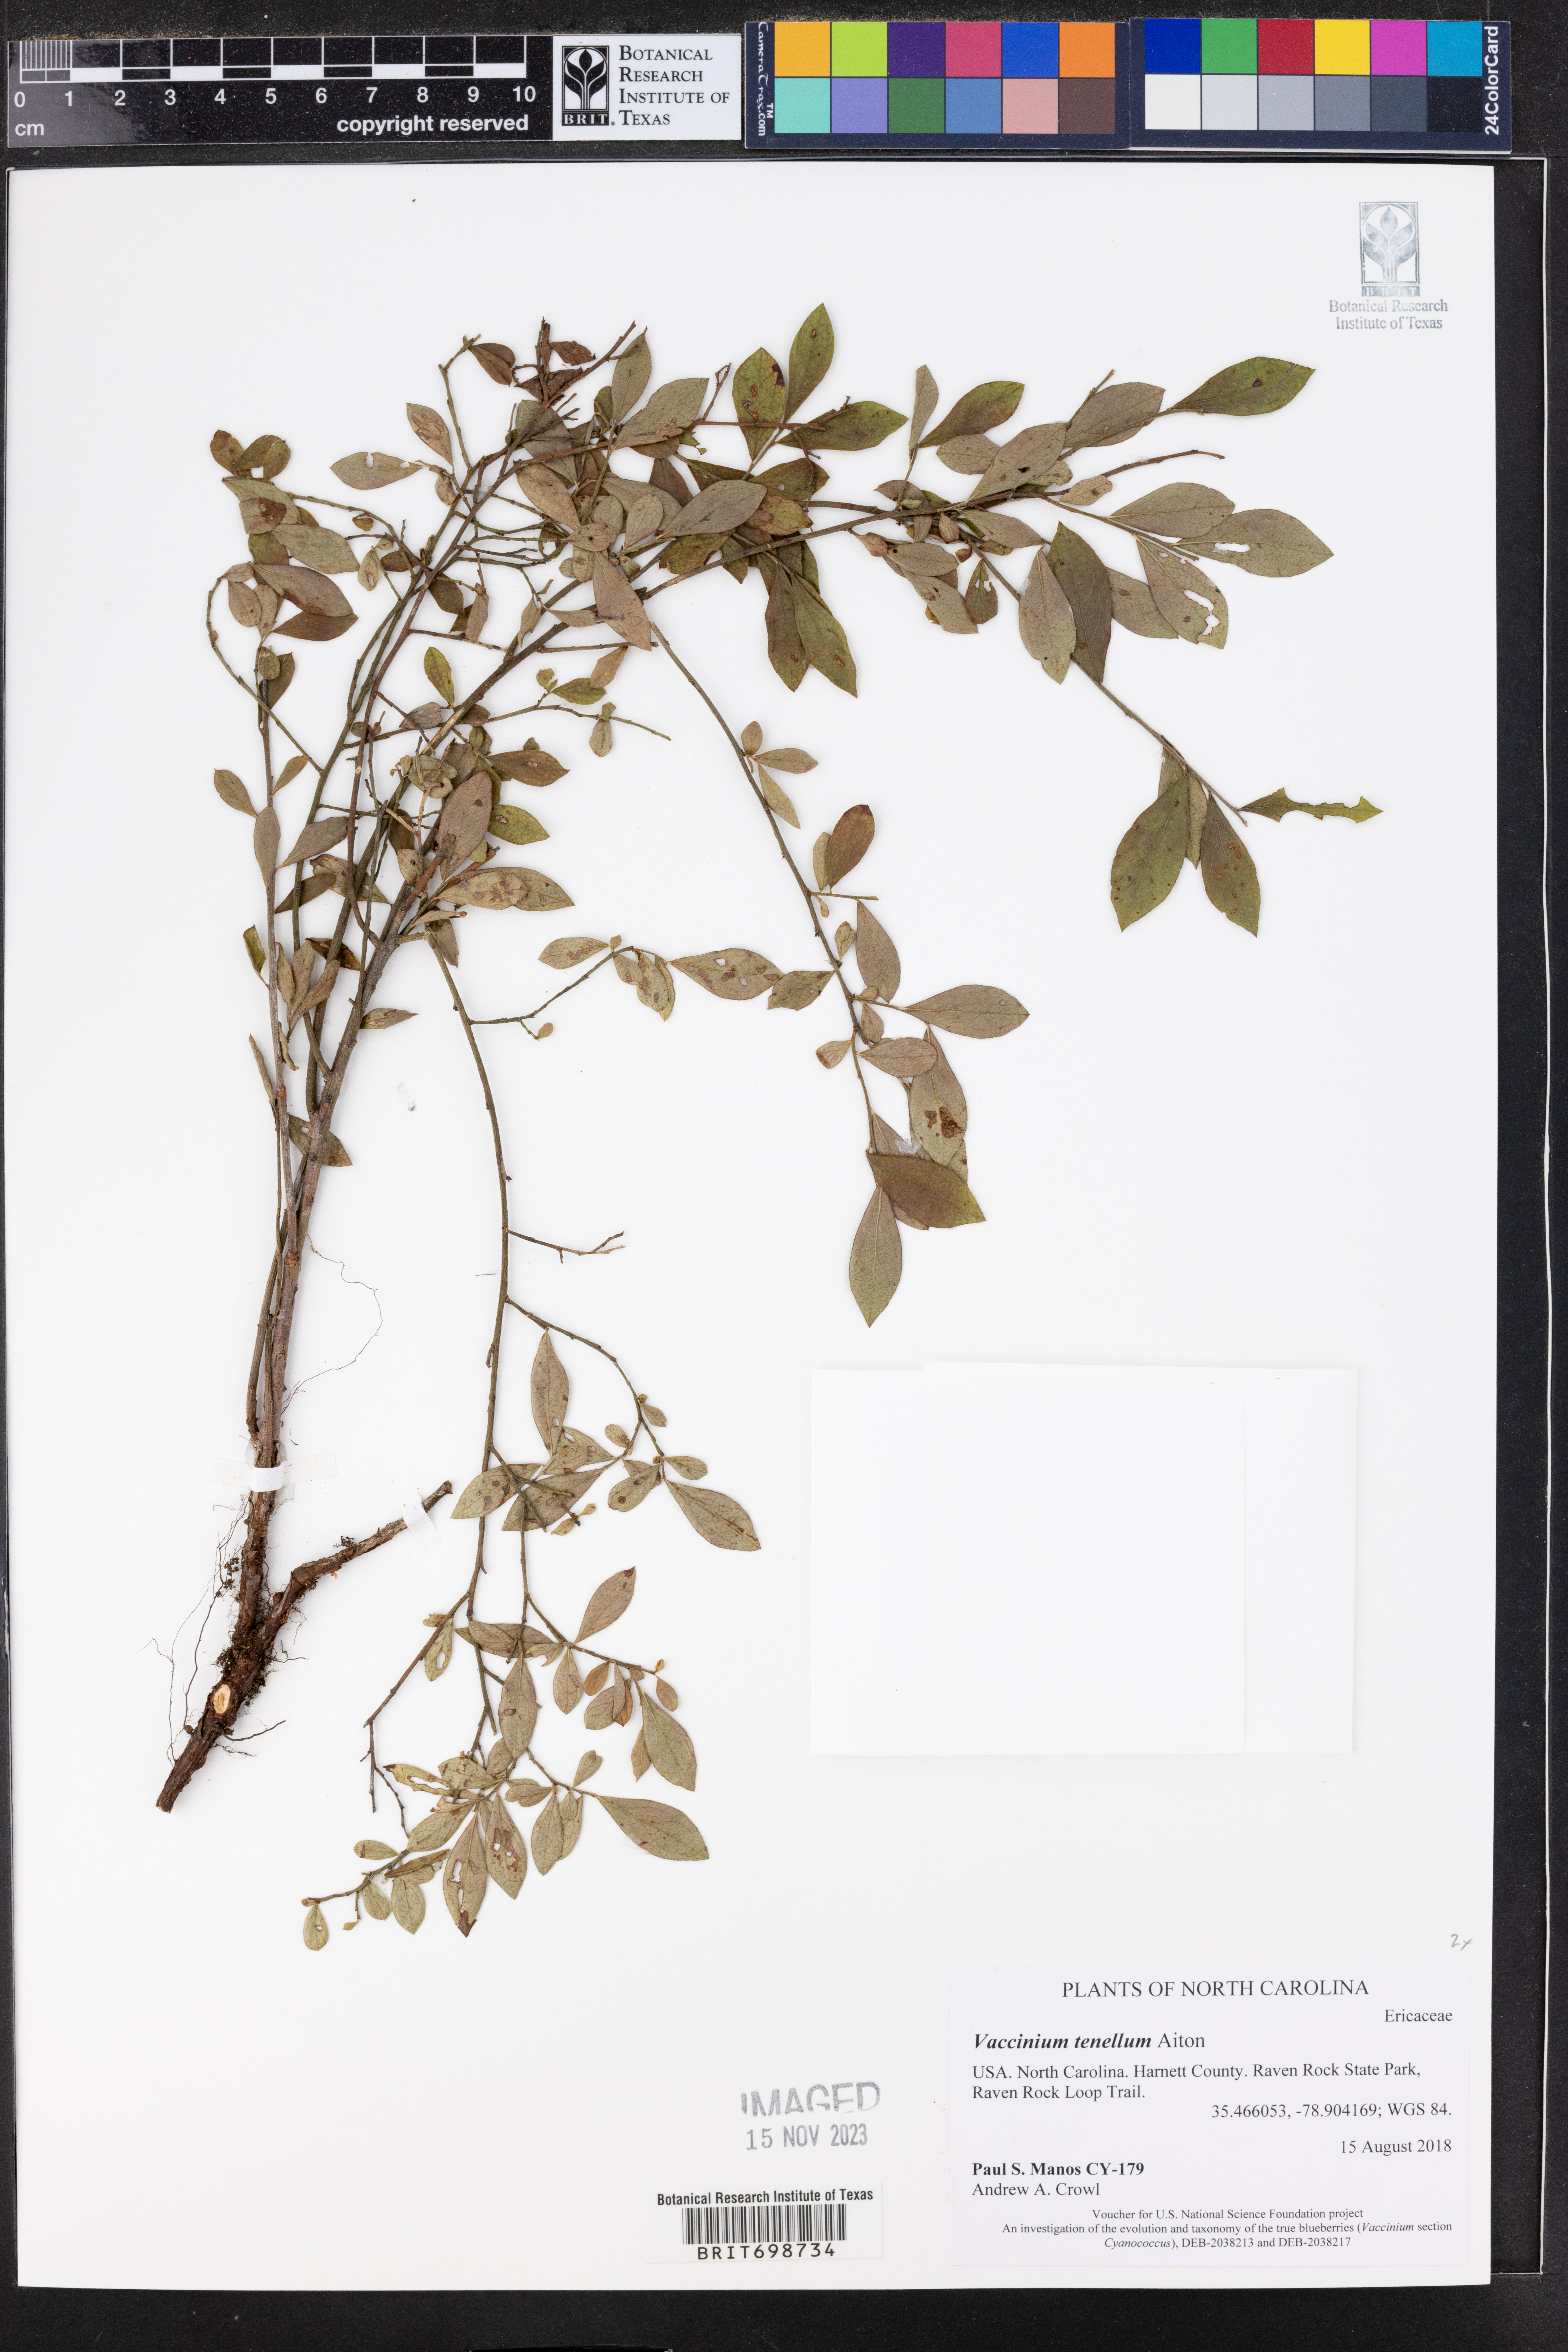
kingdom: Plantae
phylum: Tracheophyta
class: Magnoliopsida
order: Ericales
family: Ericaceae
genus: Vaccinium
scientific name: Vaccinium tenellum
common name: Southern blueberry
